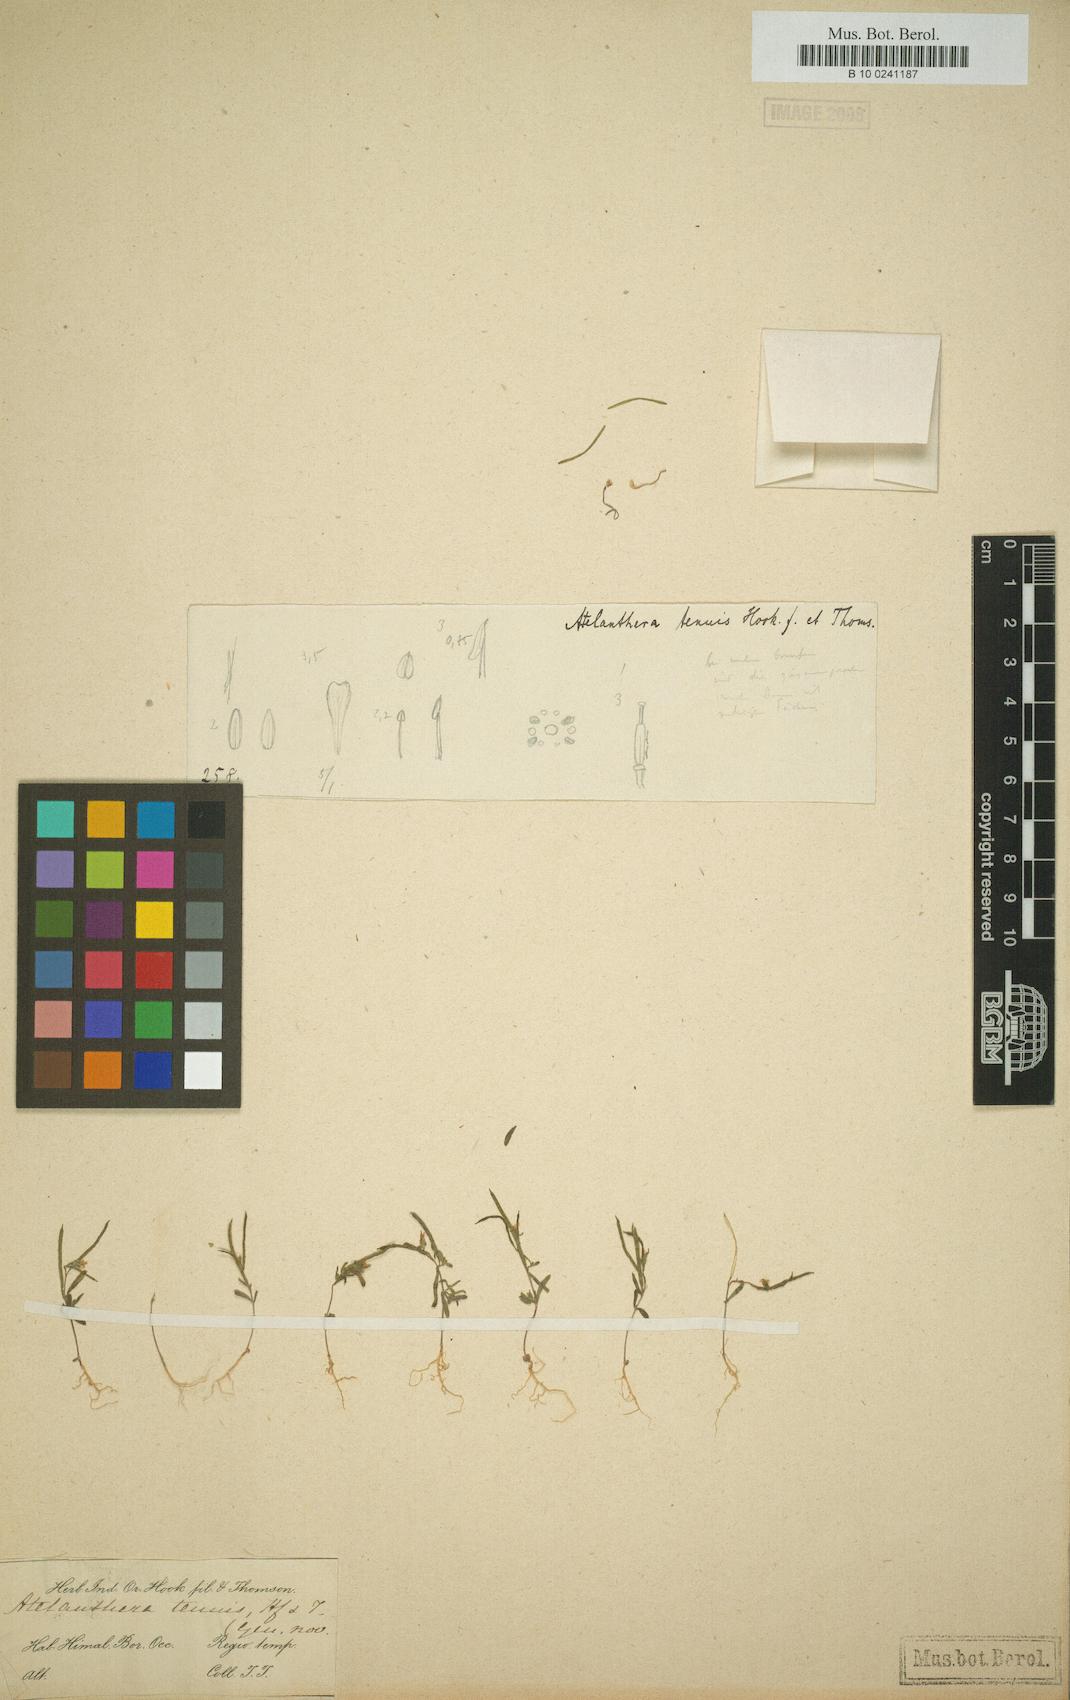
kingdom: Plantae
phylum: Tracheophyta
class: Magnoliopsida
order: Brassicales
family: Brassicaceae
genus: Atelanthera
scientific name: Atelanthera
